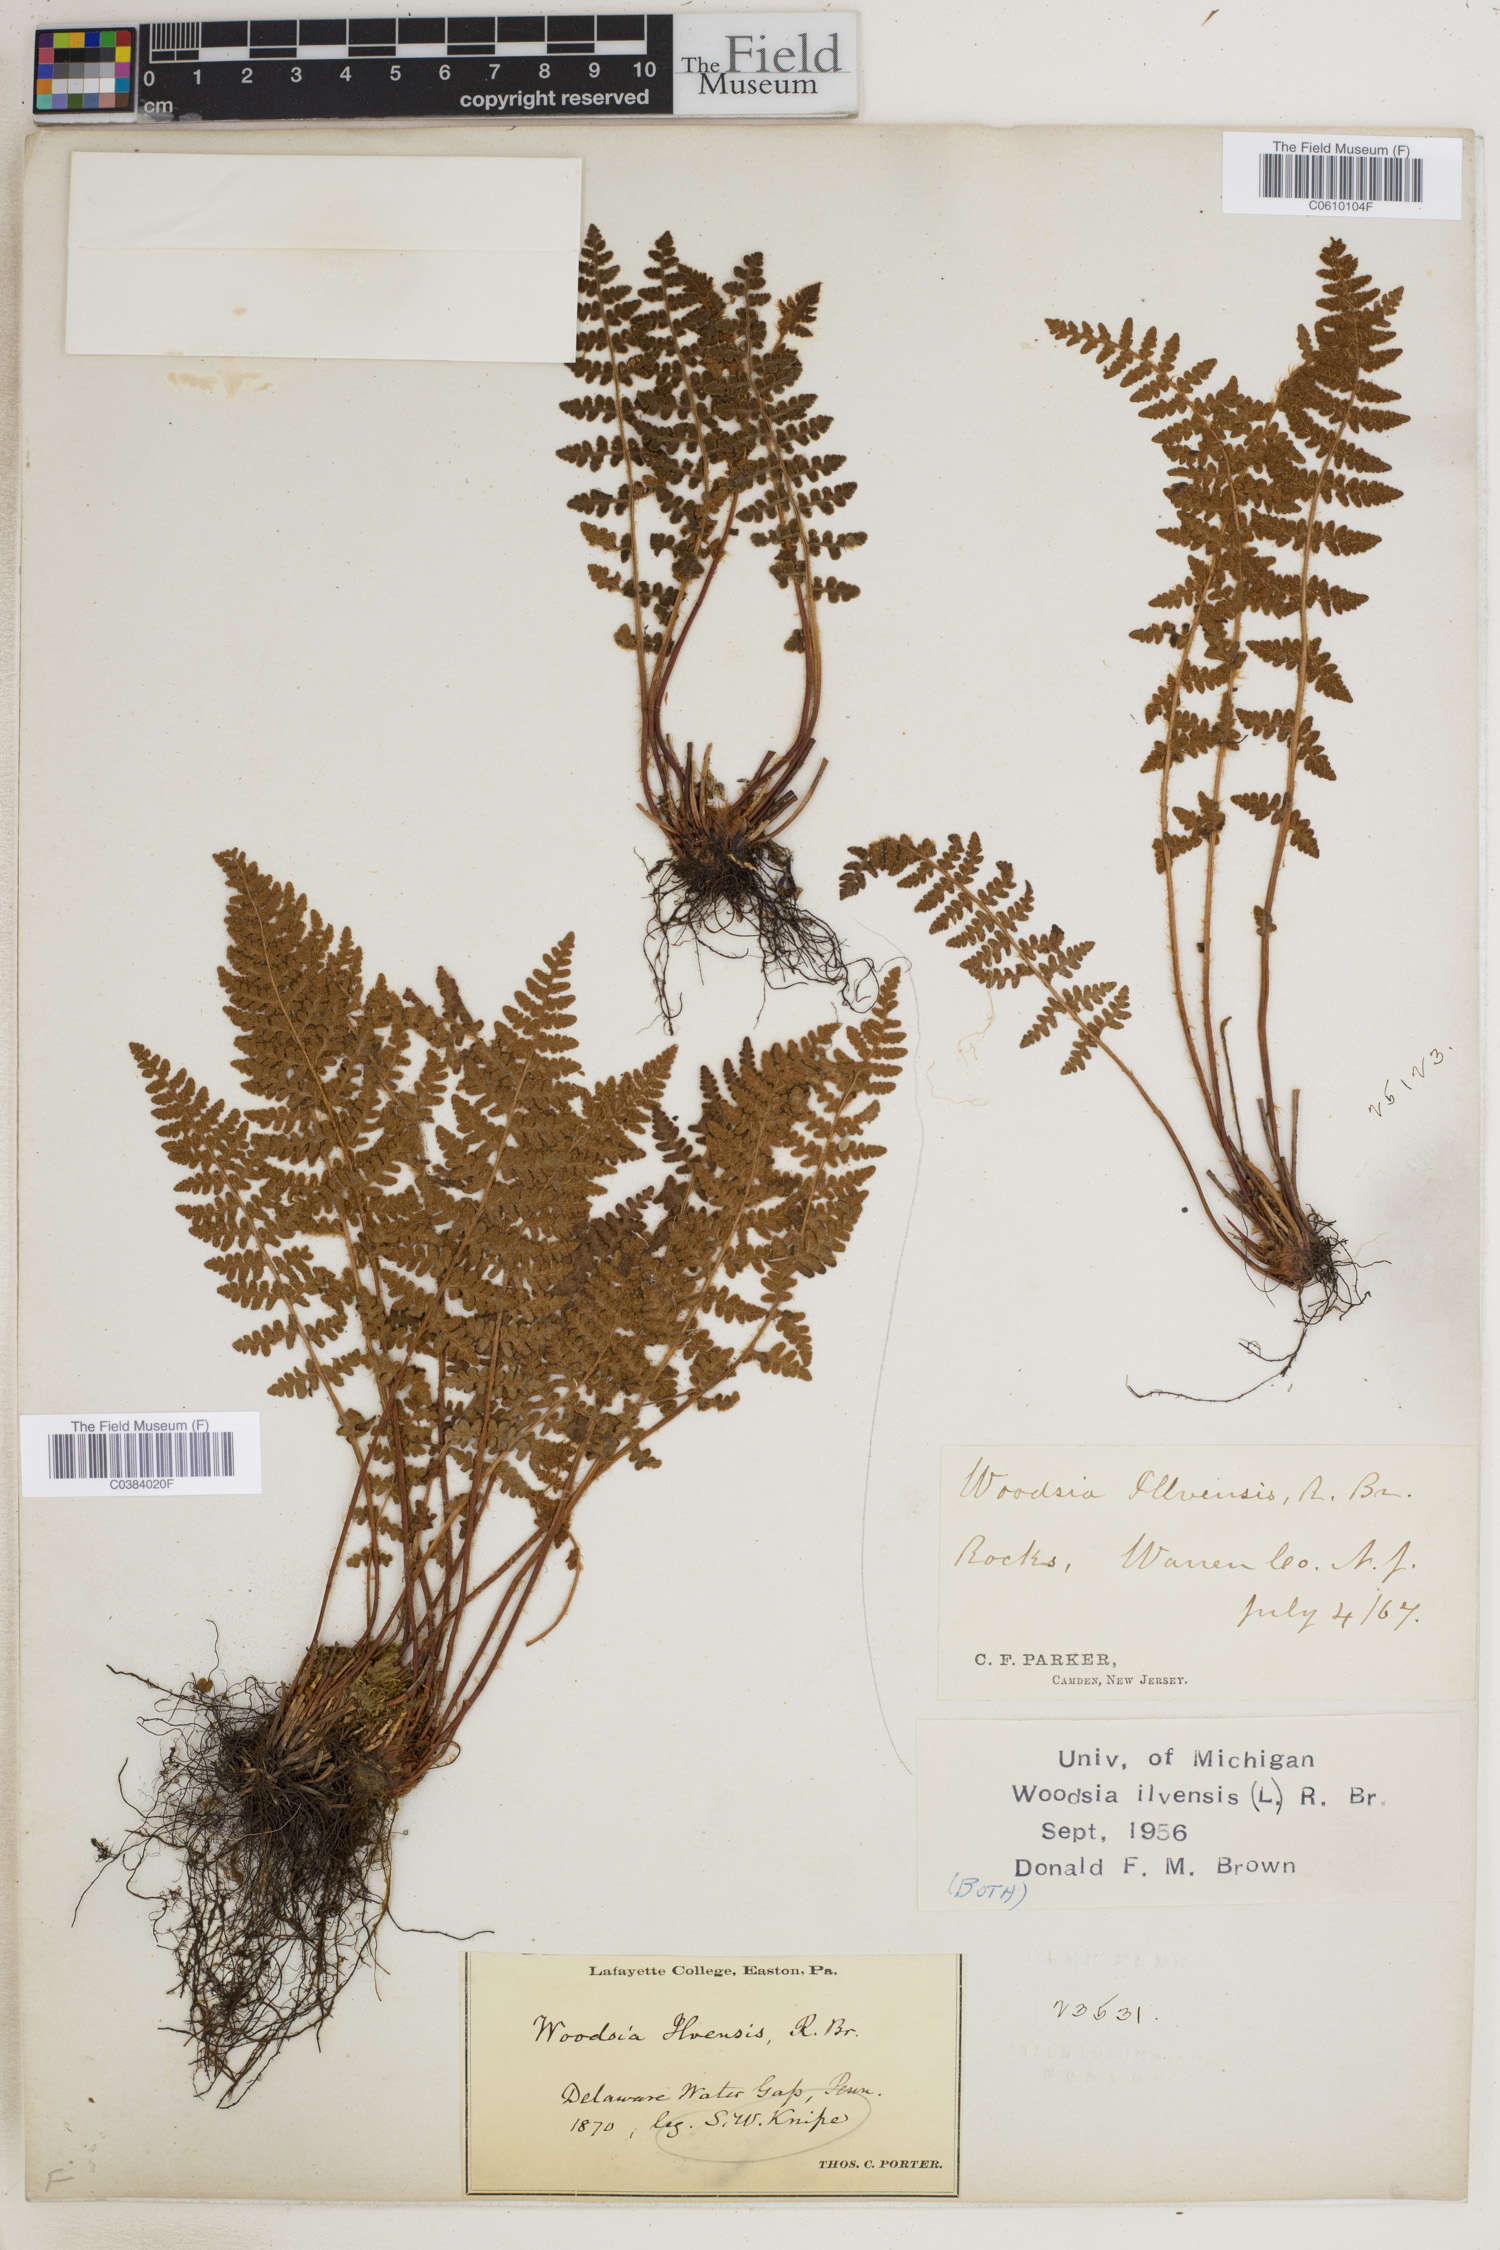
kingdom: Plantae
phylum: Tracheophyta
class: Polypodiopsida
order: Polypodiales
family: Woodsiaceae
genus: Woodsia
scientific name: Woodsia ilvensis
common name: Fragrant woodsia
